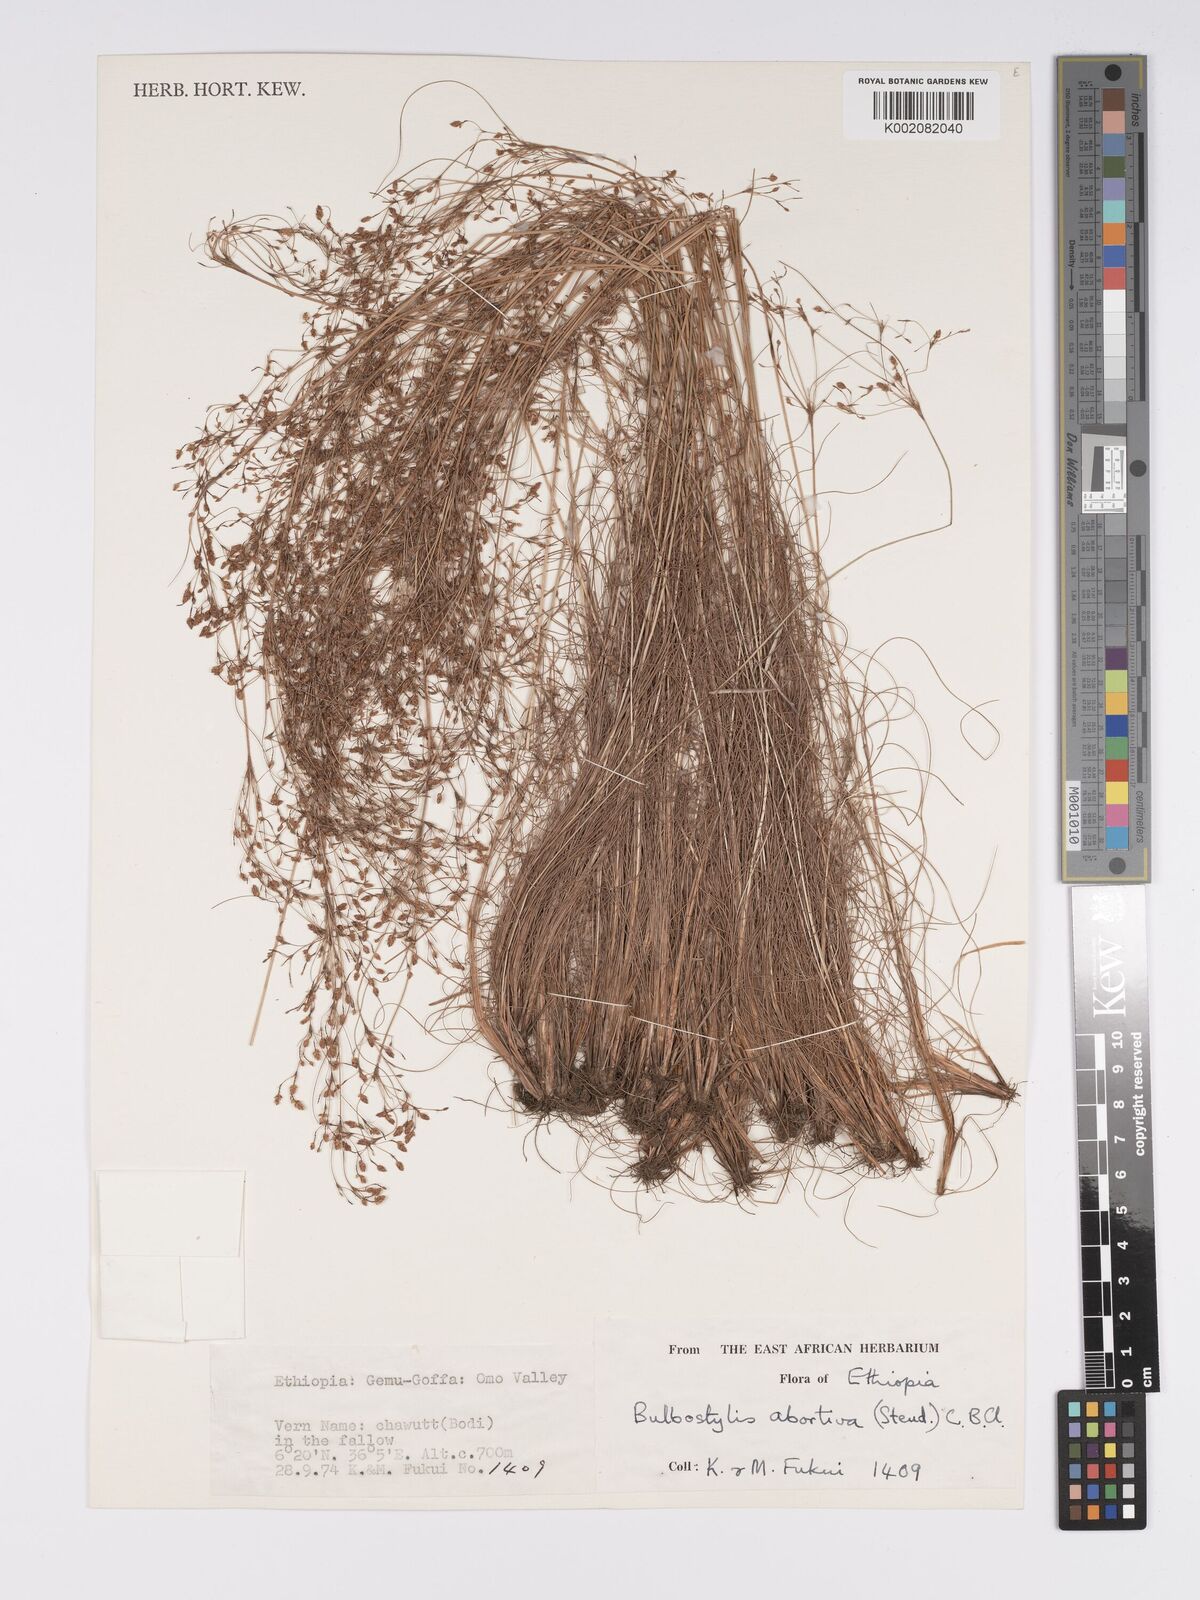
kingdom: Plantae
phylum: Tracheophyta
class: Liliopsida
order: Poales
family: Cyperaceae
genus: Bulbostylis
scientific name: Bulbostylis abortiva
